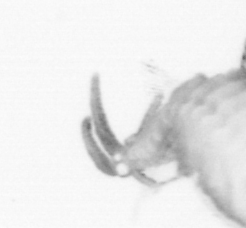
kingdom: Animalia
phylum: Arthropoda
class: Copepoda
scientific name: Copepoda
